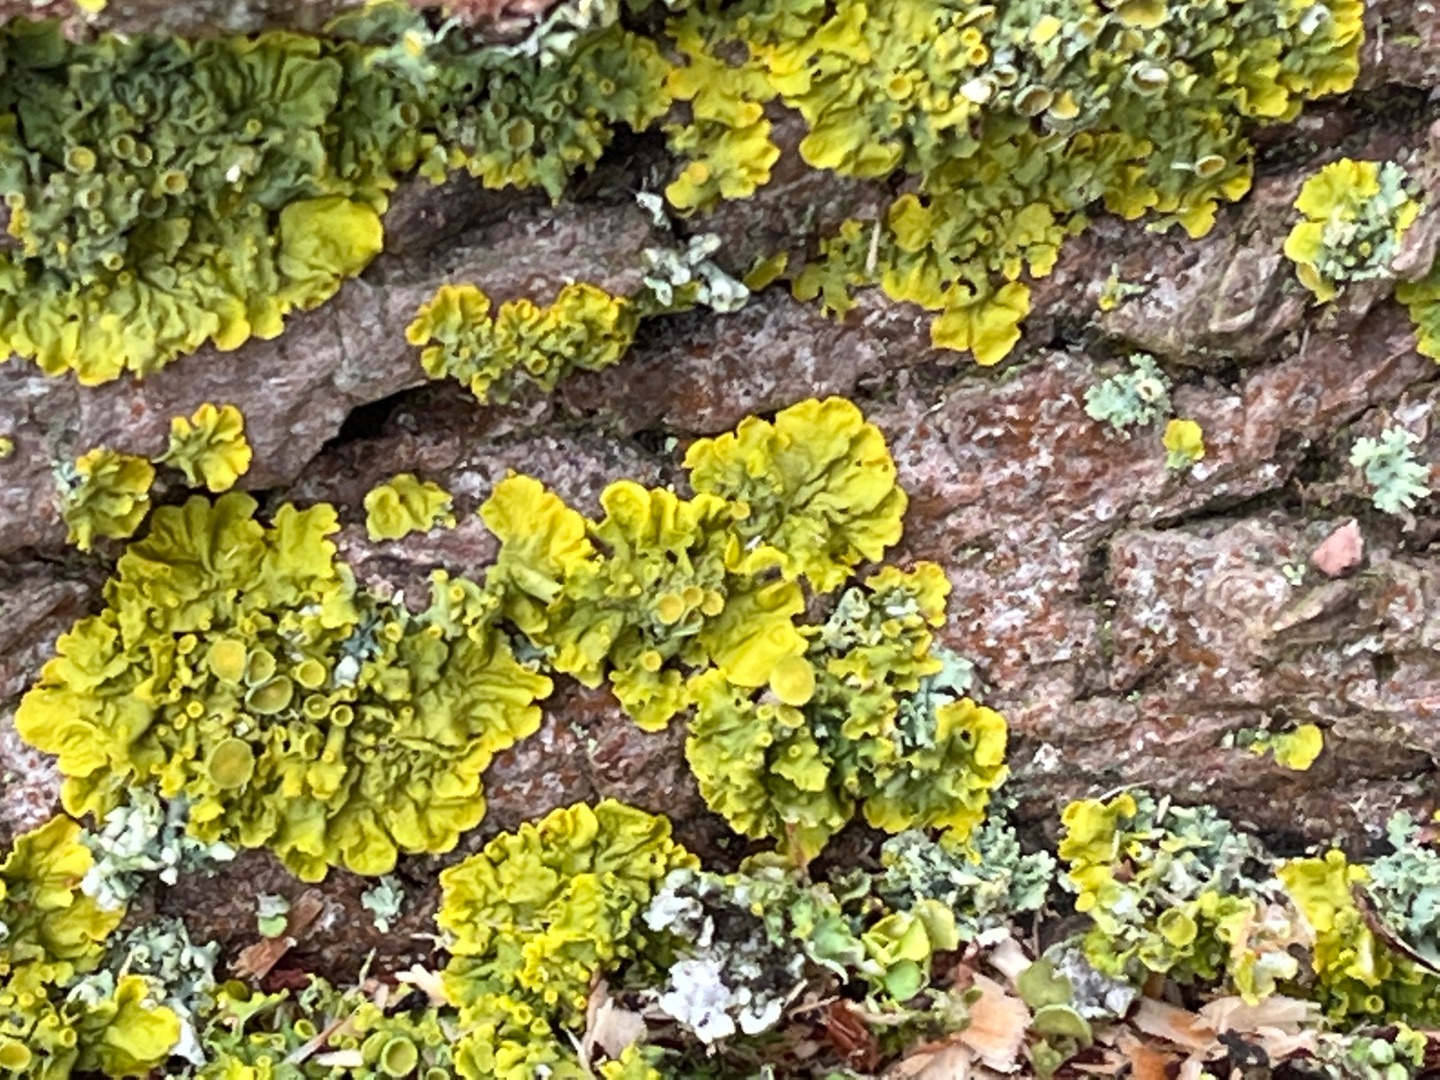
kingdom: Fungi
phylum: Ascomycota
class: Lecanoromycetes
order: Teloschistales
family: Teloschistaceae
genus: Xanthoria
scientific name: Xanthoria parietina
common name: Almindelig væggelav
